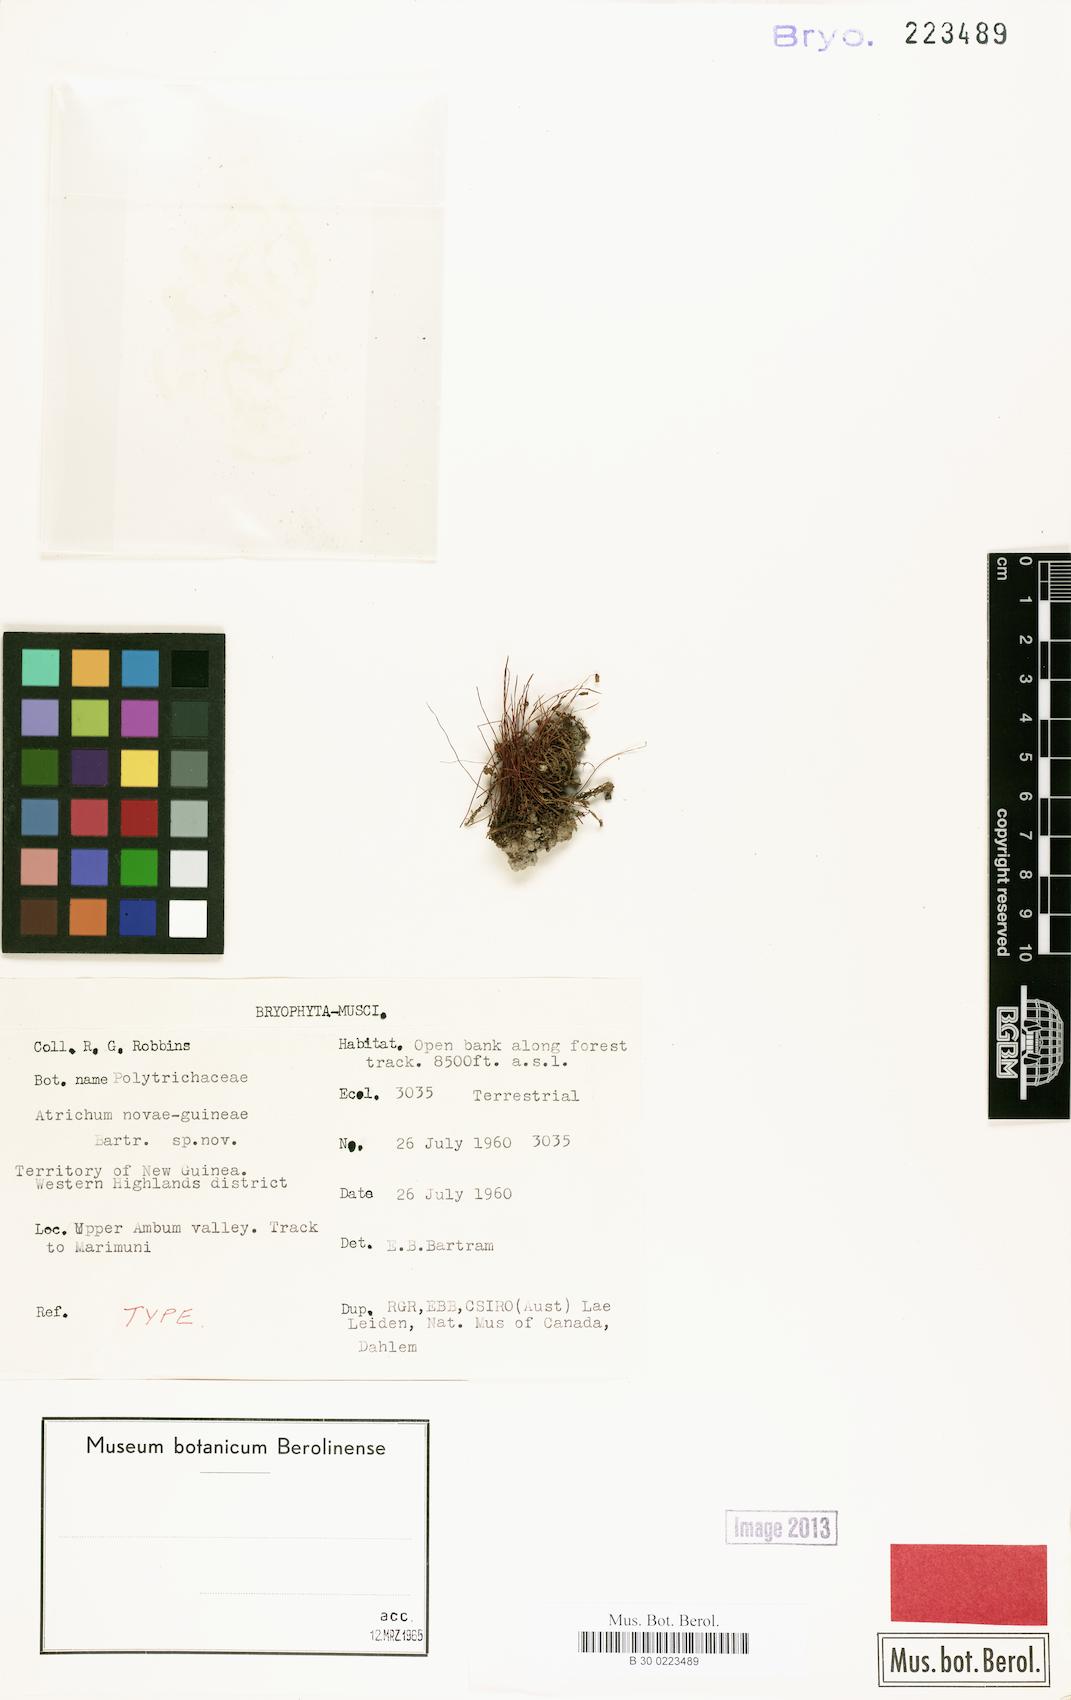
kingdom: Plantae
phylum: Bryophyta
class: Polytrichopsida
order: Polytrichales
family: Polytrichaceae
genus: Oligotrichum
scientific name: Oligotrichum novae-guineae
